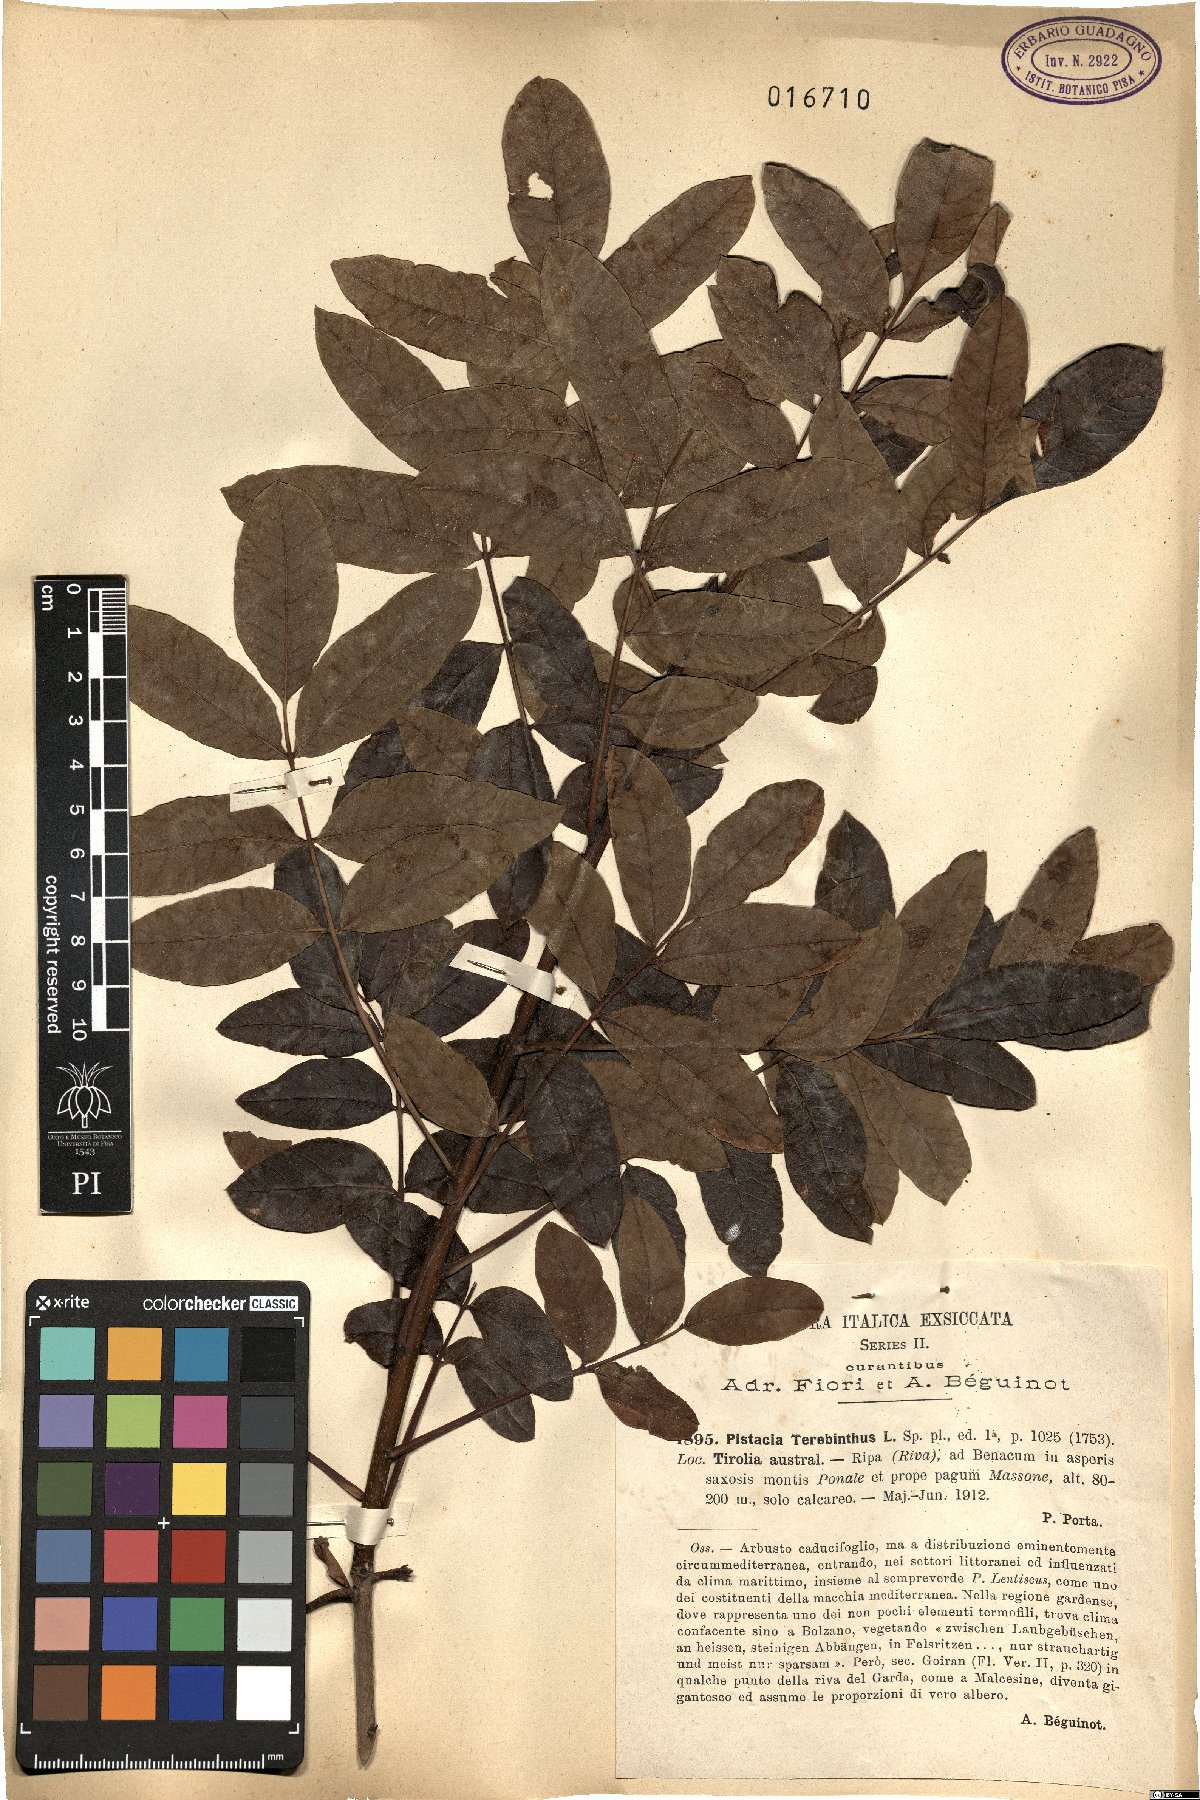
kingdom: Plantae
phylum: Tracheophyta
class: Magnoliopsida
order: Sapindales
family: Anacardiaceae
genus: Pistacia
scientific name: Pistacia terebinthus
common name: Terebinth
